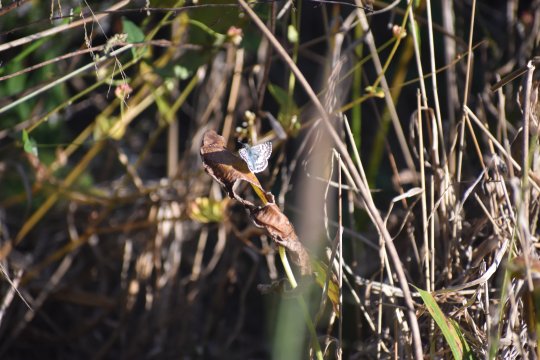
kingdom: Animalia
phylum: Arthropoda
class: Insecta
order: Lepidoptera
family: Hesperiidae
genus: Pyrgus
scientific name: Pyrgus
